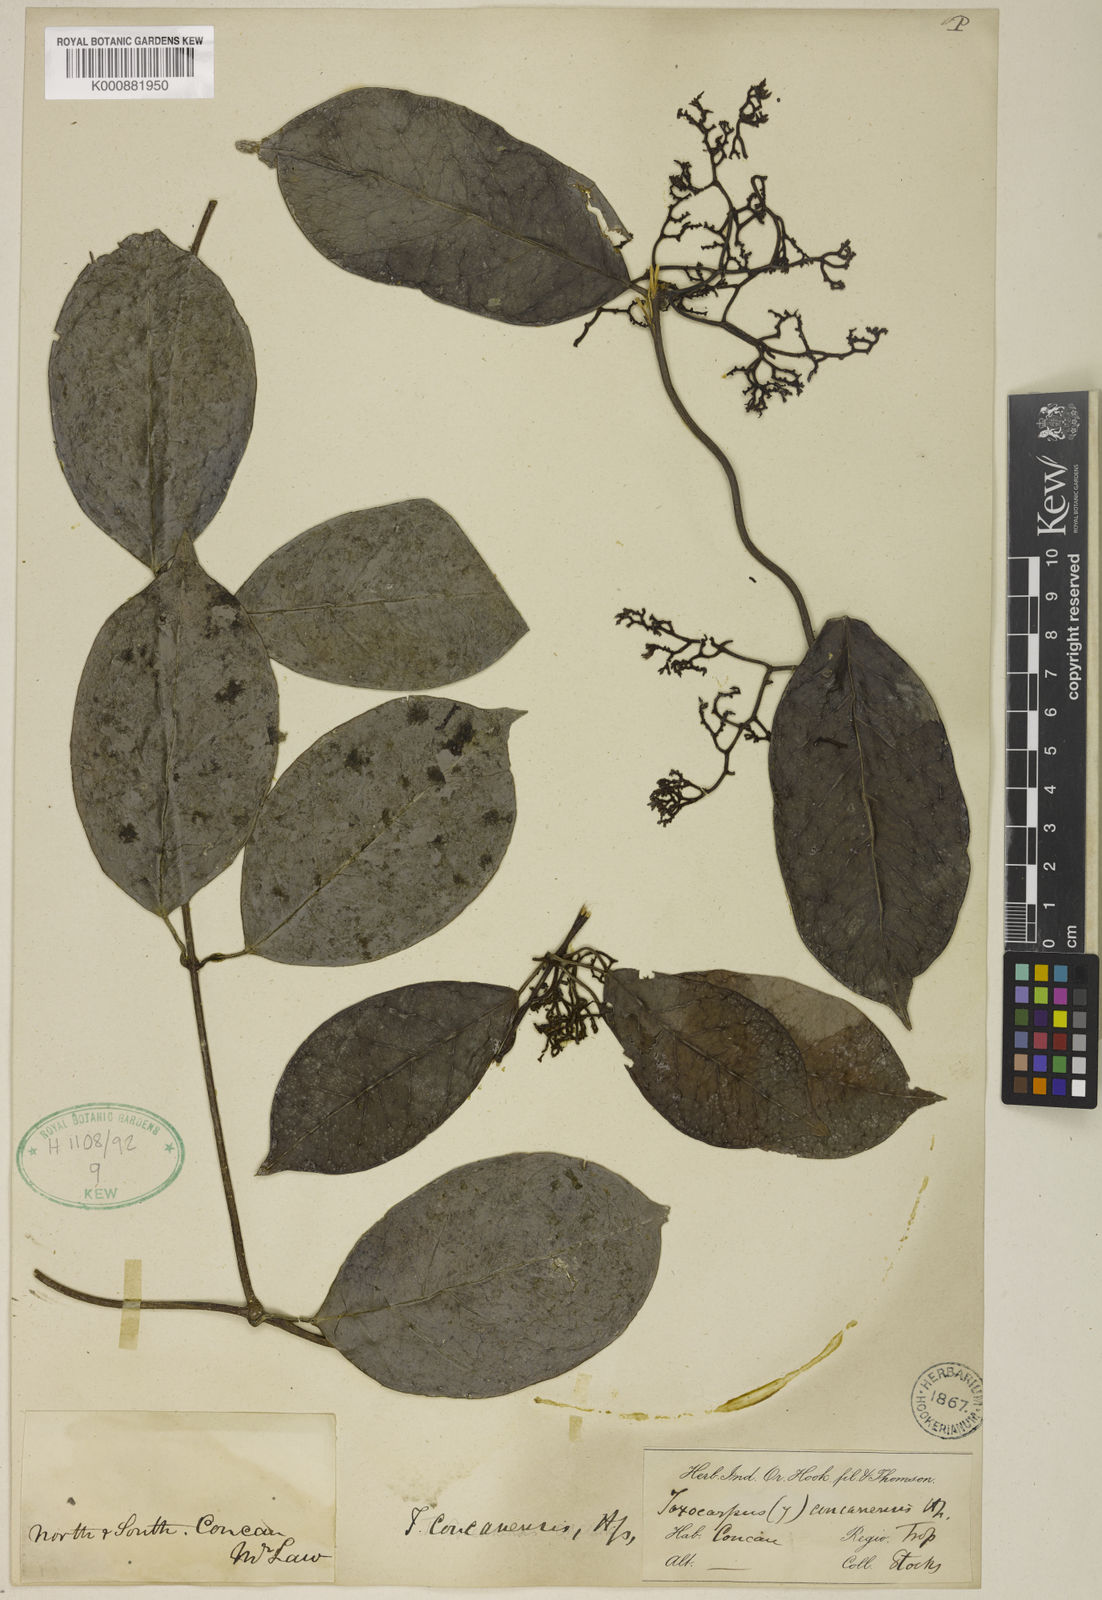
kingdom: Plantae
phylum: Tracheophyta
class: Magnoliopsida
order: Gentianales
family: Apocynaceae
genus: Toxocarpus
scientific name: Toxocarpus concanensis
